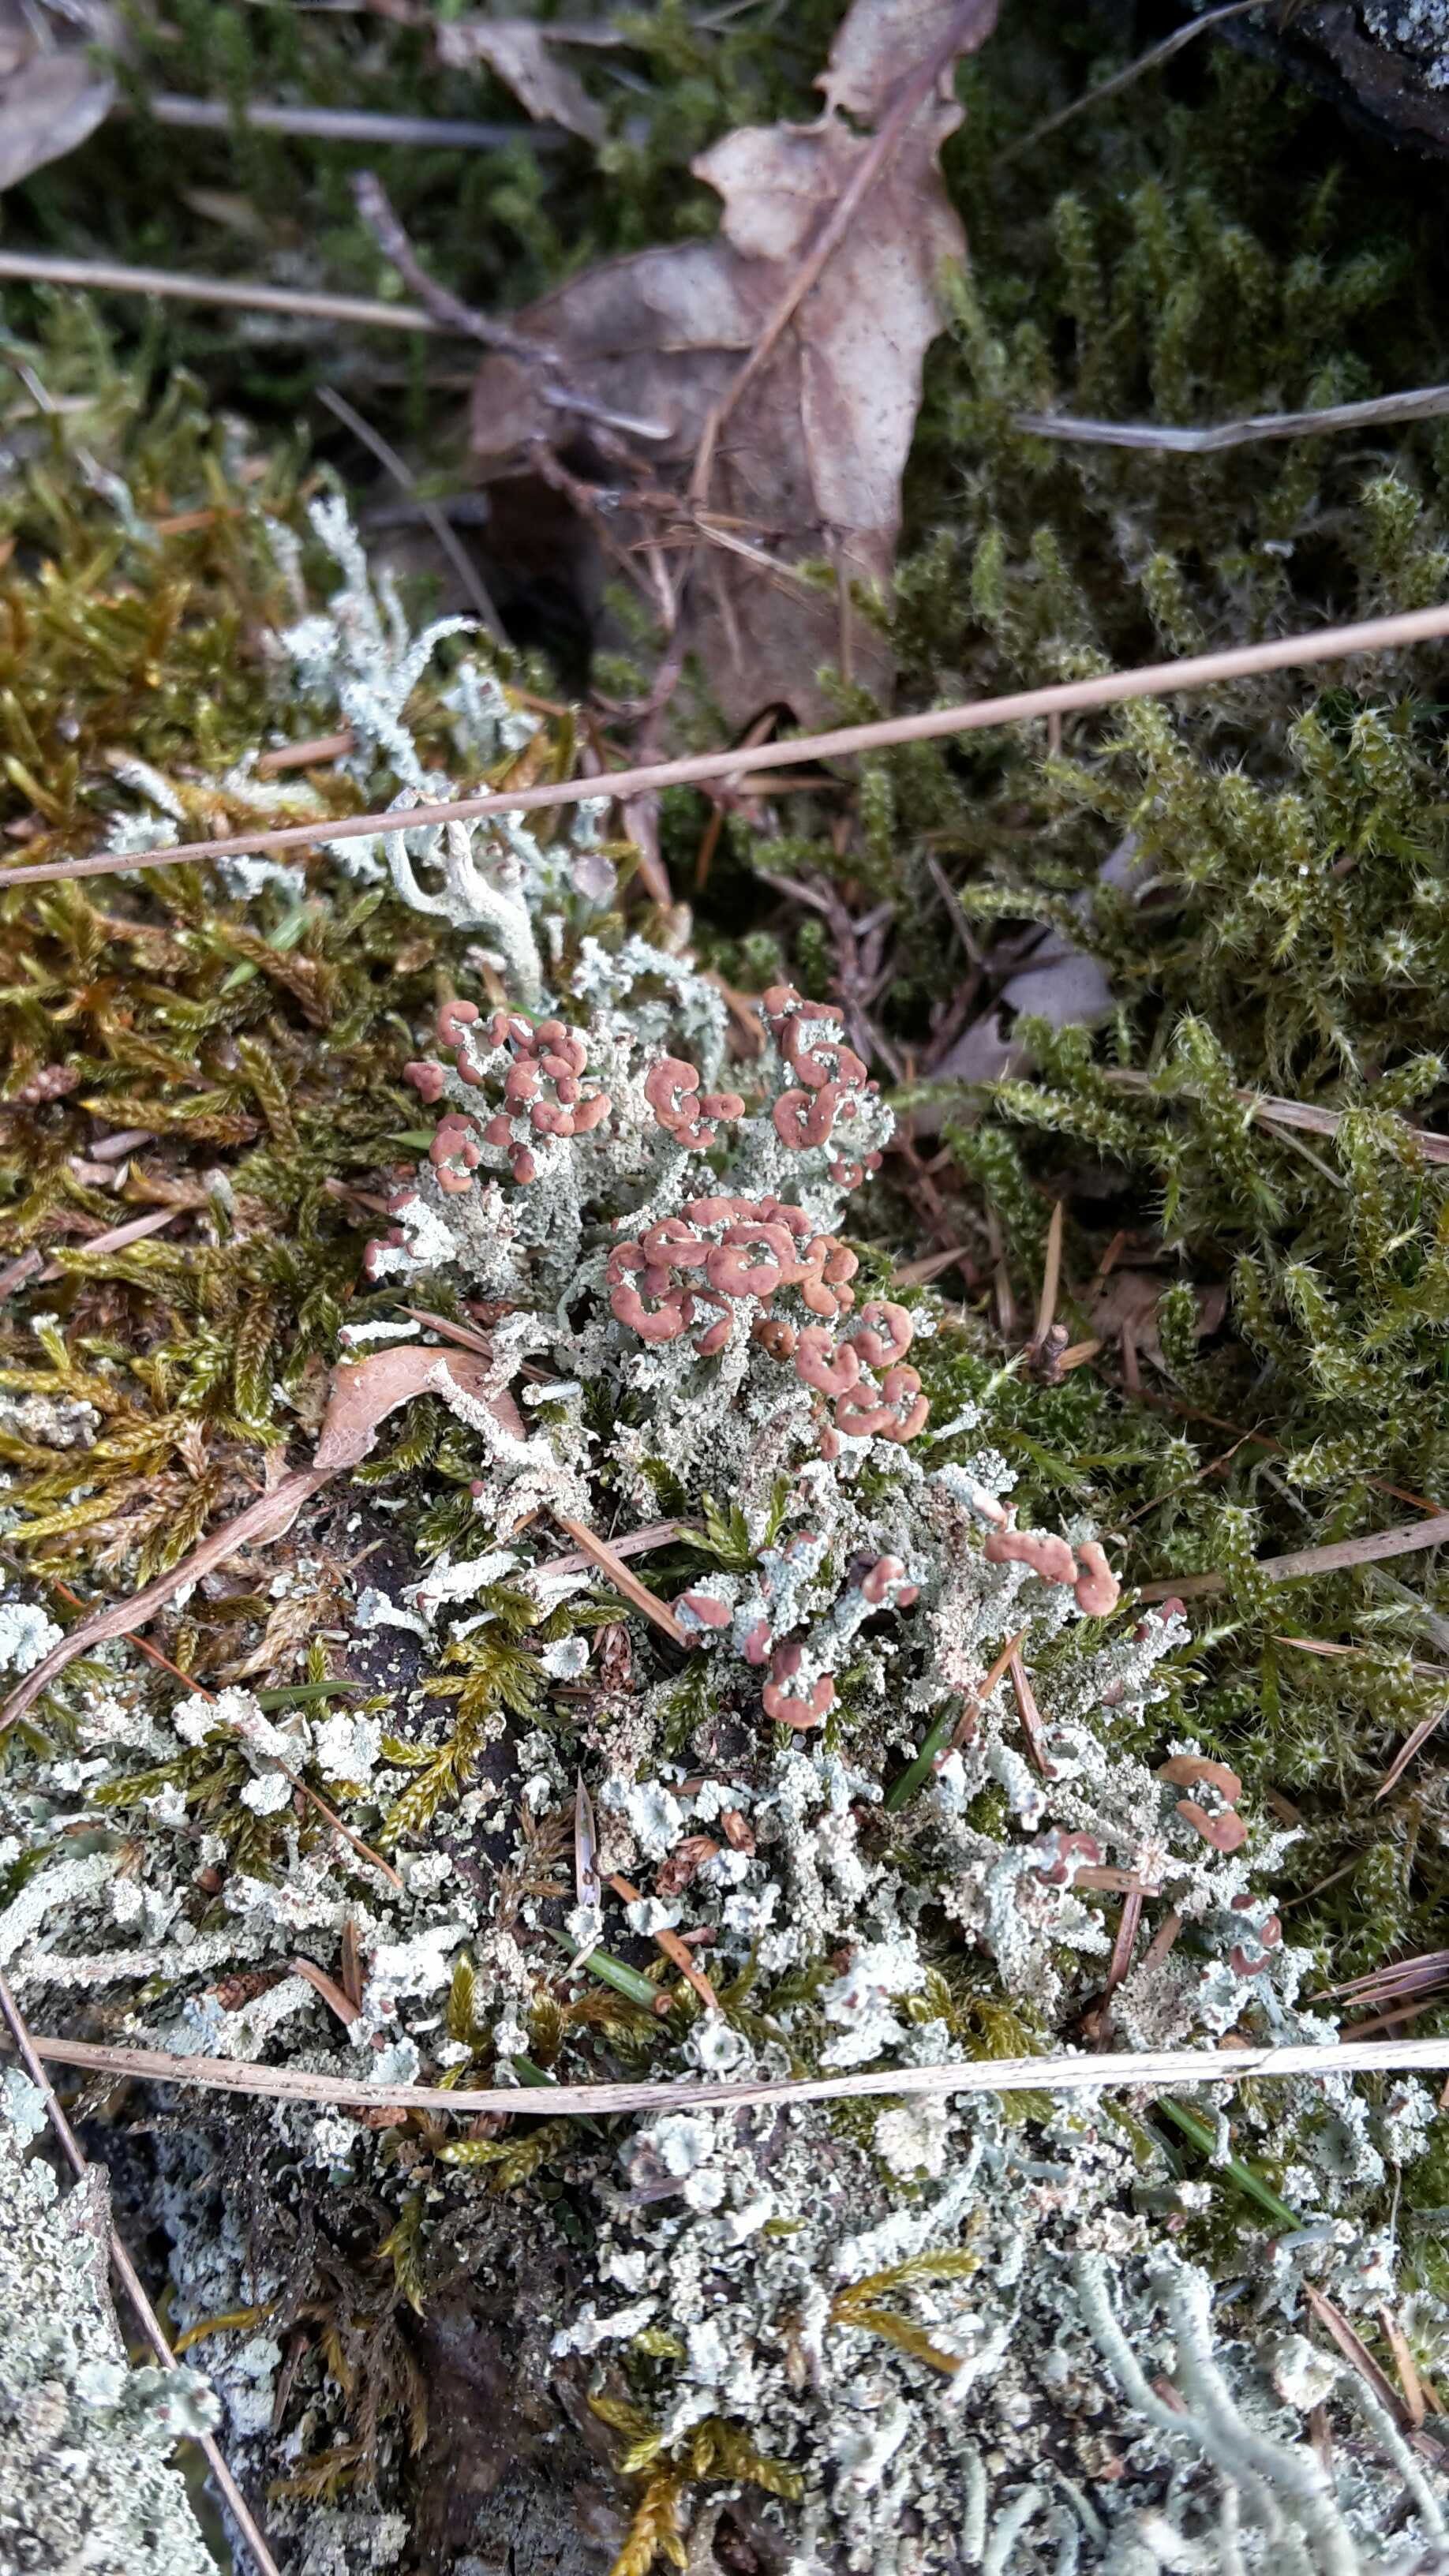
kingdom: Fungi
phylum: Ascomycota
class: Lecanoromycetes
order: Lecanorales
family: Cladoniaceae
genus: Cladonia
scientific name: Cladonia ramulosa
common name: kliddet bægerlav
